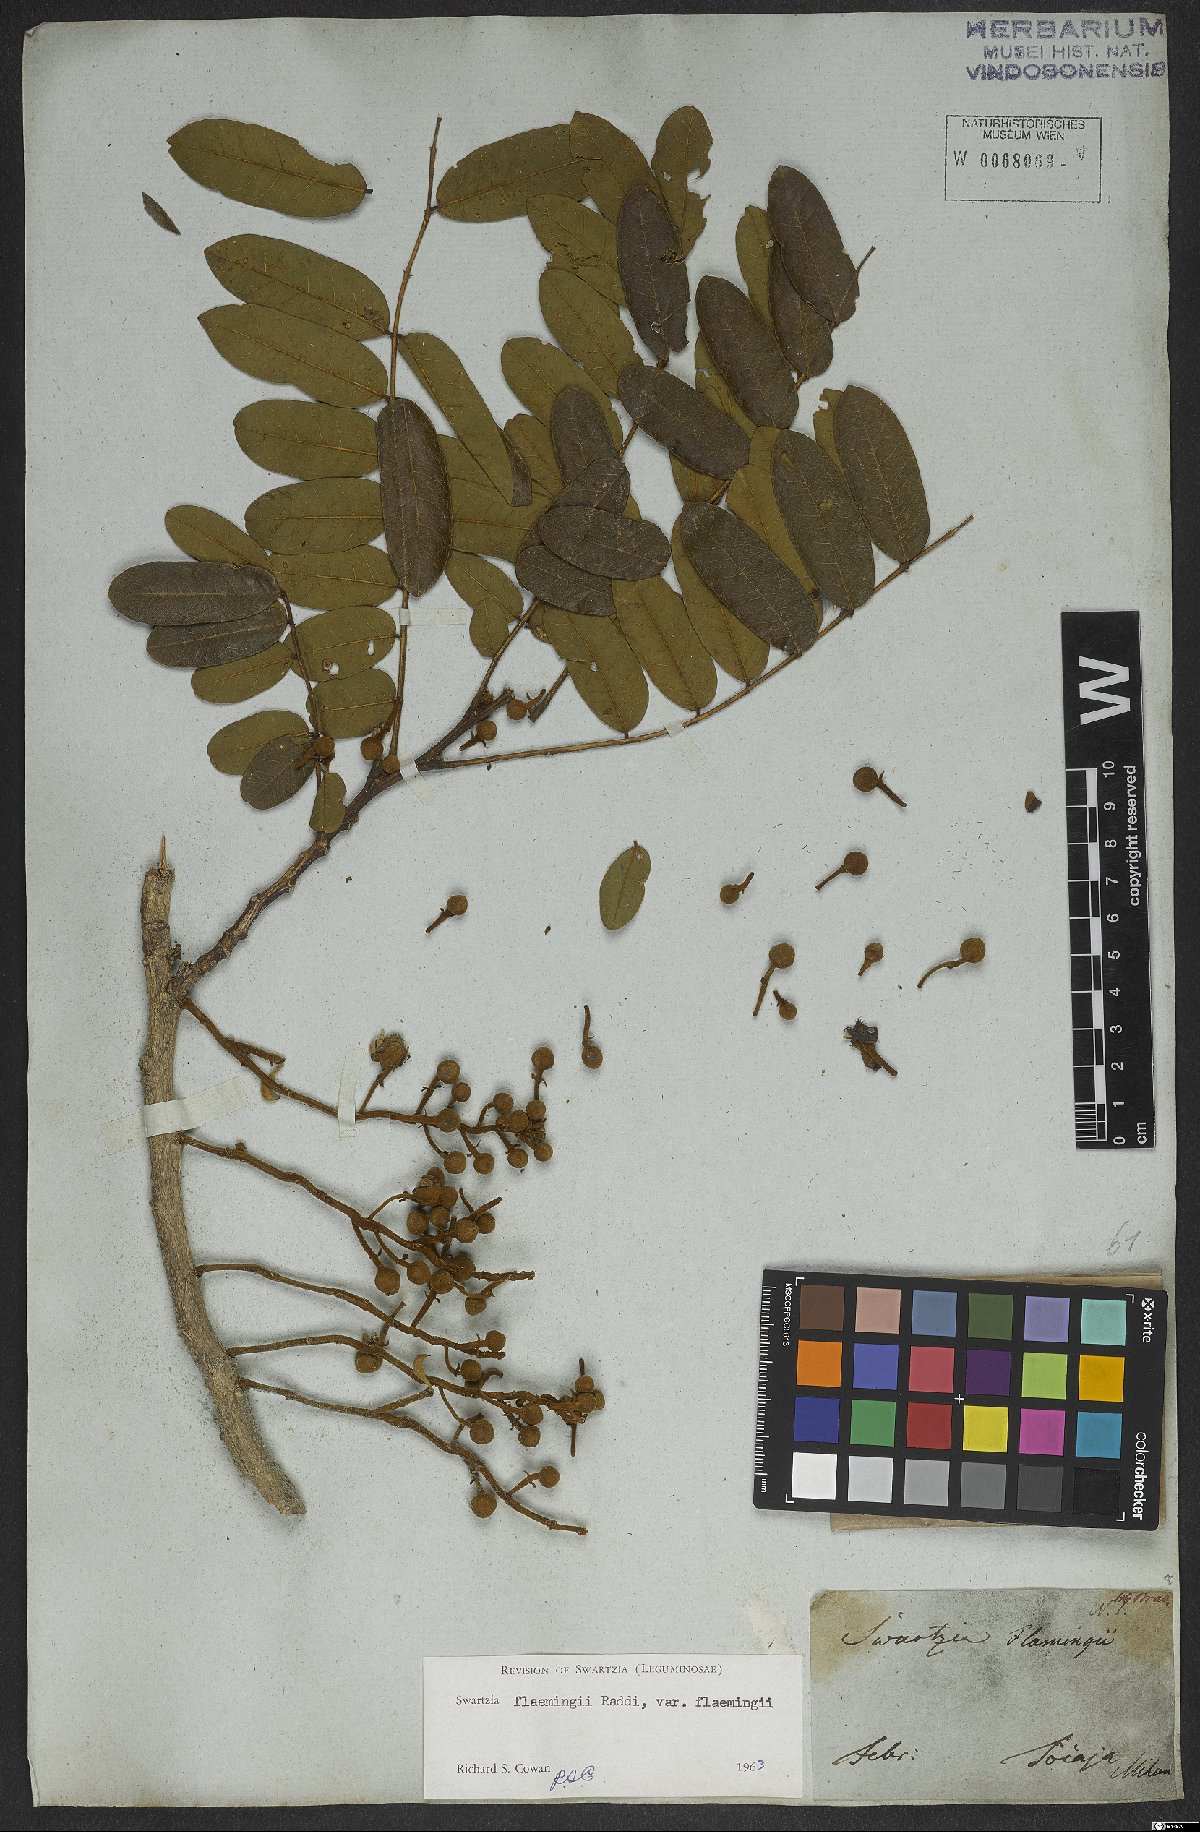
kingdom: Plantae
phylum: Tracheophyta
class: Magnoliopsida
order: Fabales
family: Fabaceae
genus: Swartzia
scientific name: Swartzia flaemingii
